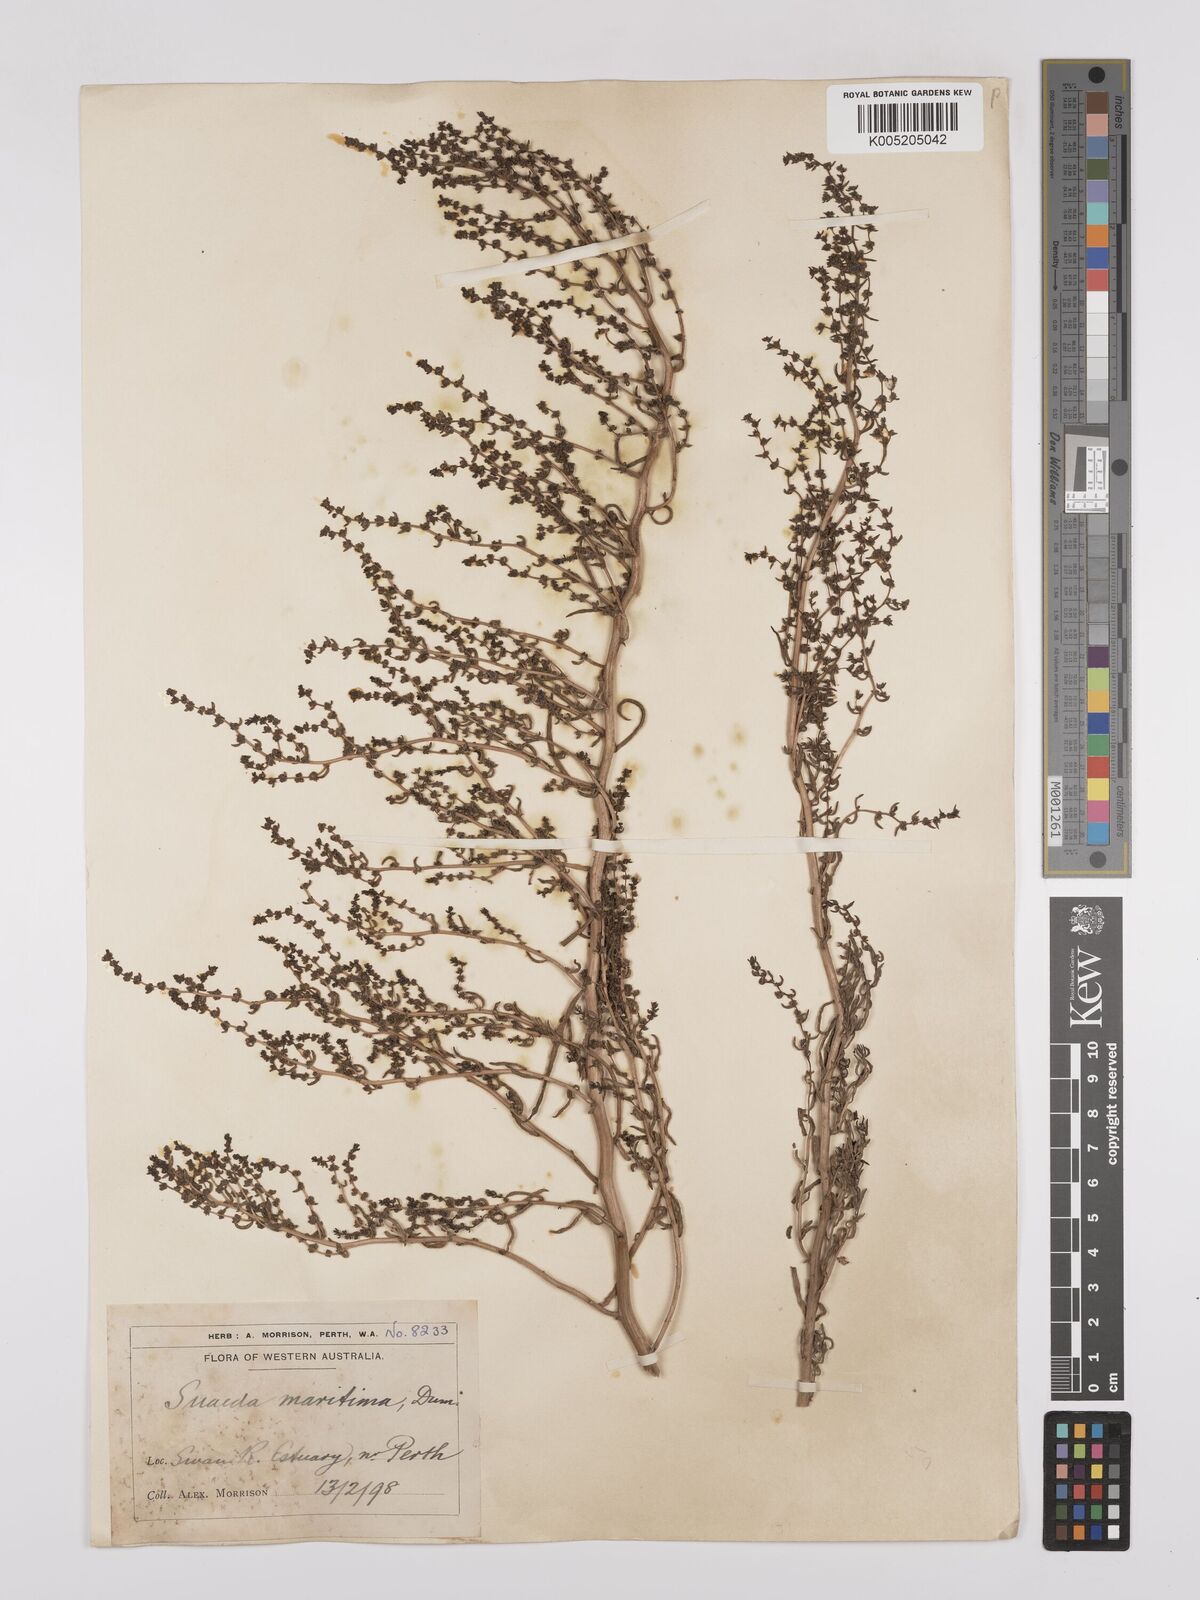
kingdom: Plantae
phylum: Tracheophyta
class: Magnoliopsida
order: Caryophyllales
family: Amaranthaceae
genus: Suaeda
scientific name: Suaeda australis
